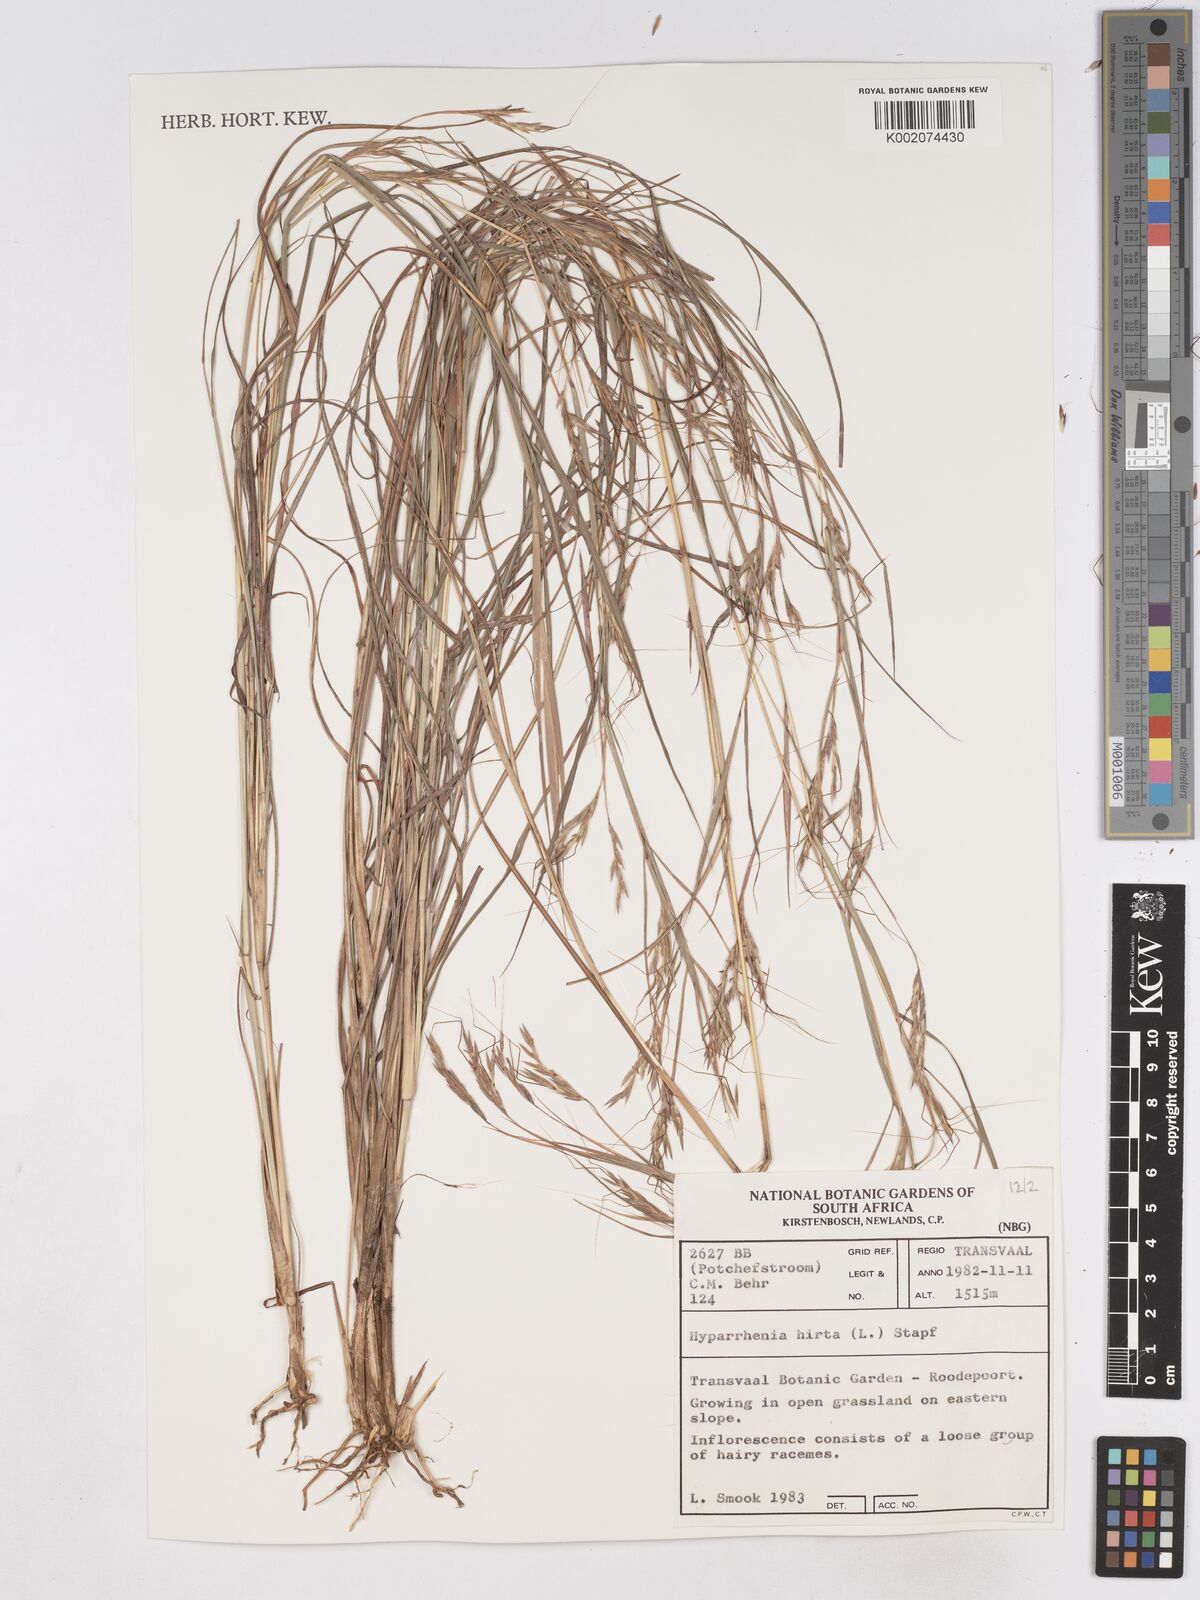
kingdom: Plantae
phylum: Tracheophyta
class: Liliopsida
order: Poales
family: Poaceae
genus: Hyparrhenia
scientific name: Hyparrhenia hirta
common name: Thatching grass
